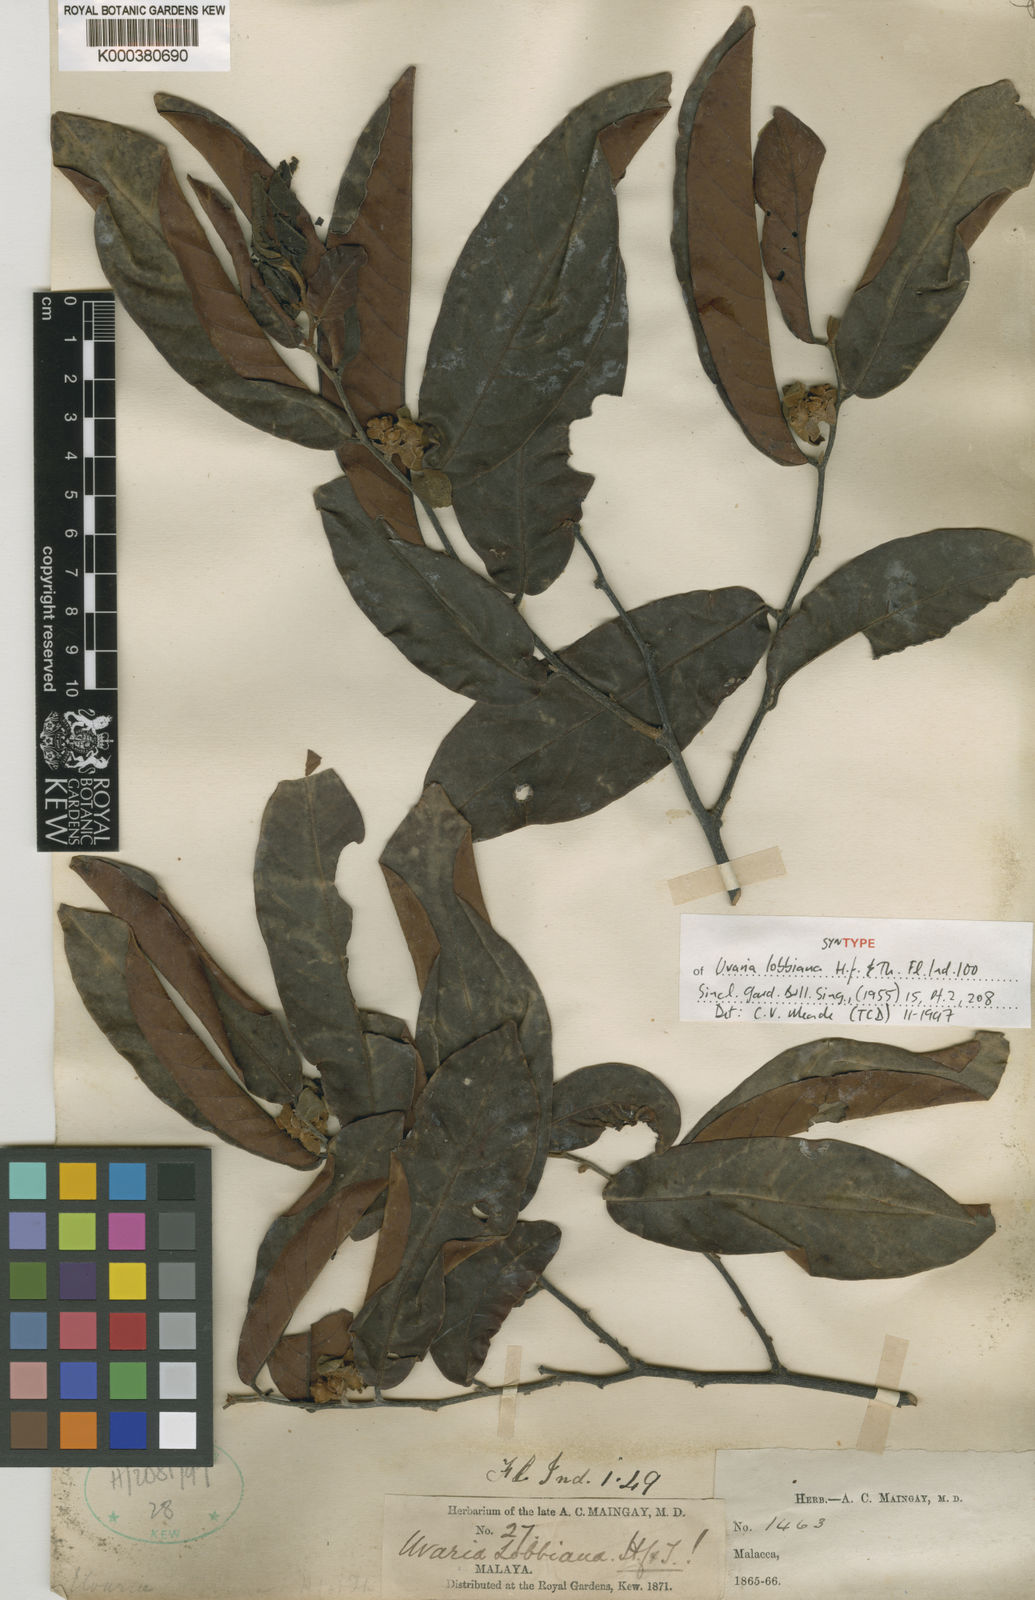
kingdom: Plantae
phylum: Tracheophyta
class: Magnoliopsida
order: Magnoliales
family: Annonaceae
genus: Uvaria
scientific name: Uvaria lobbiana
